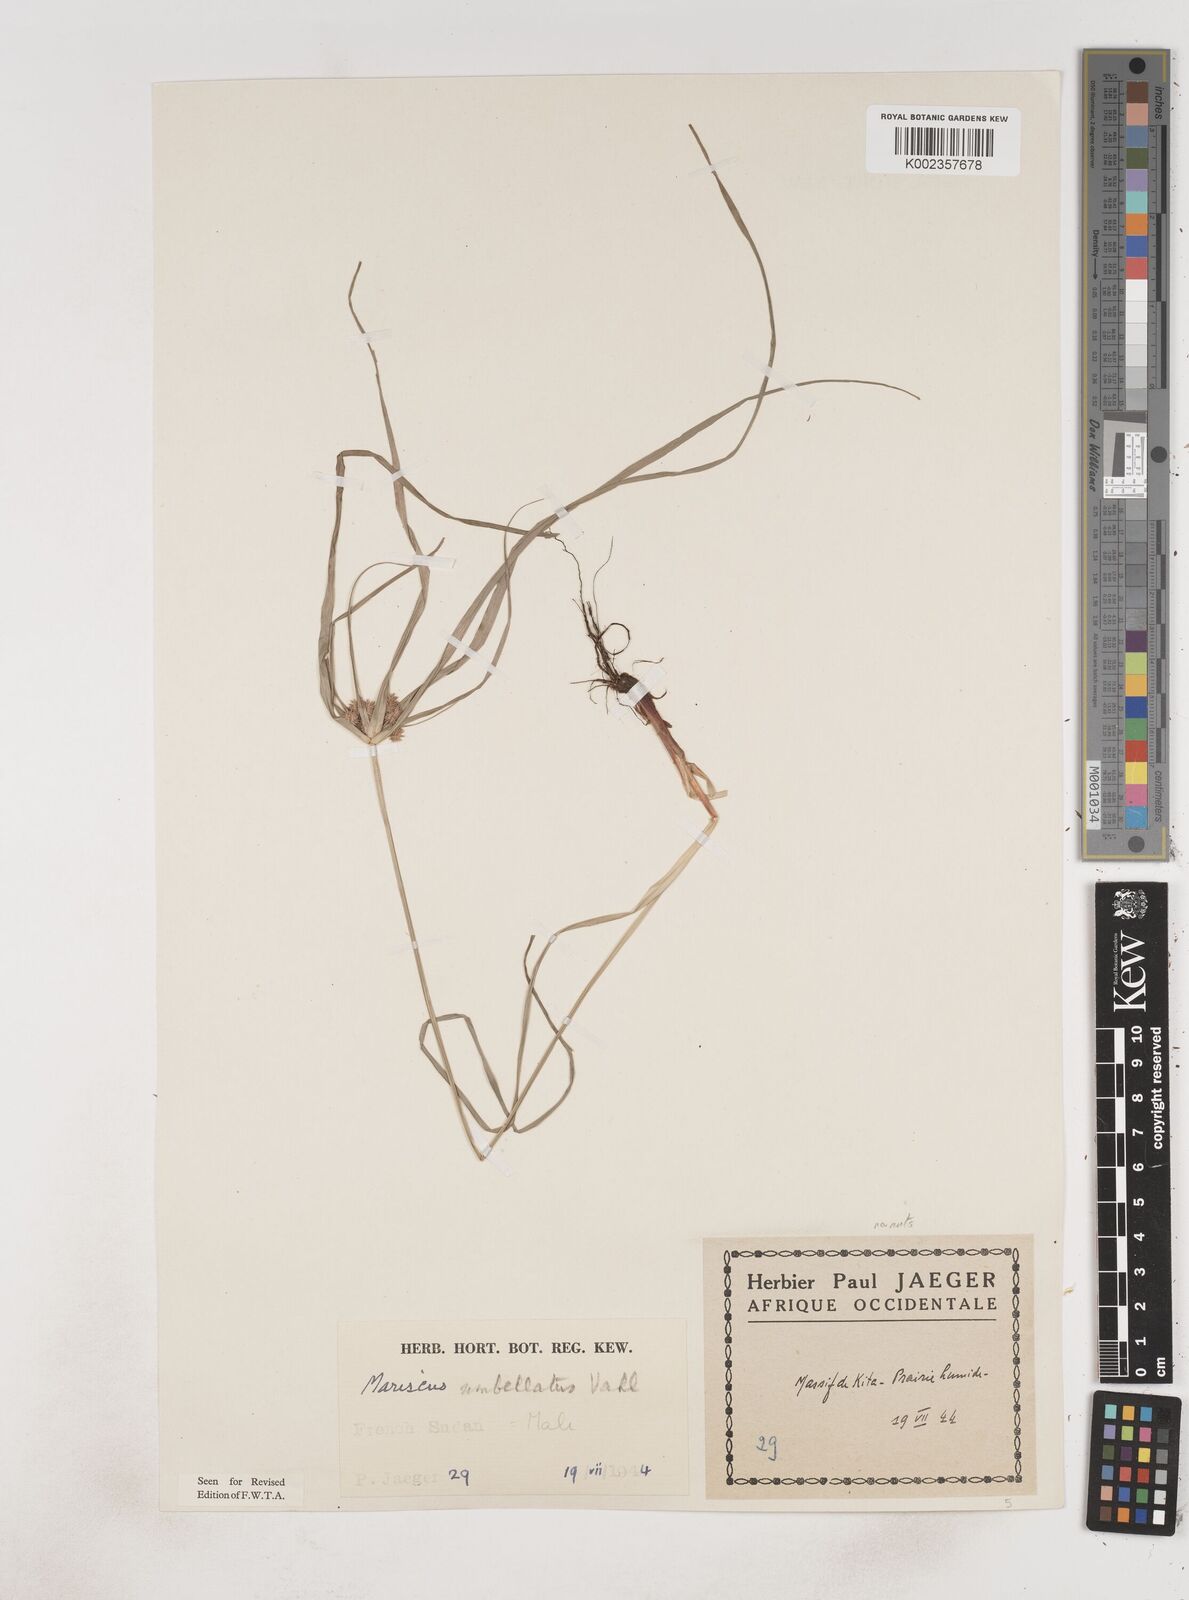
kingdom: Plantae
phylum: Tracheophyta
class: Liliopsida
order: Poales
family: Cyperaceae
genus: Cyperus
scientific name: Cyperus sublimis
